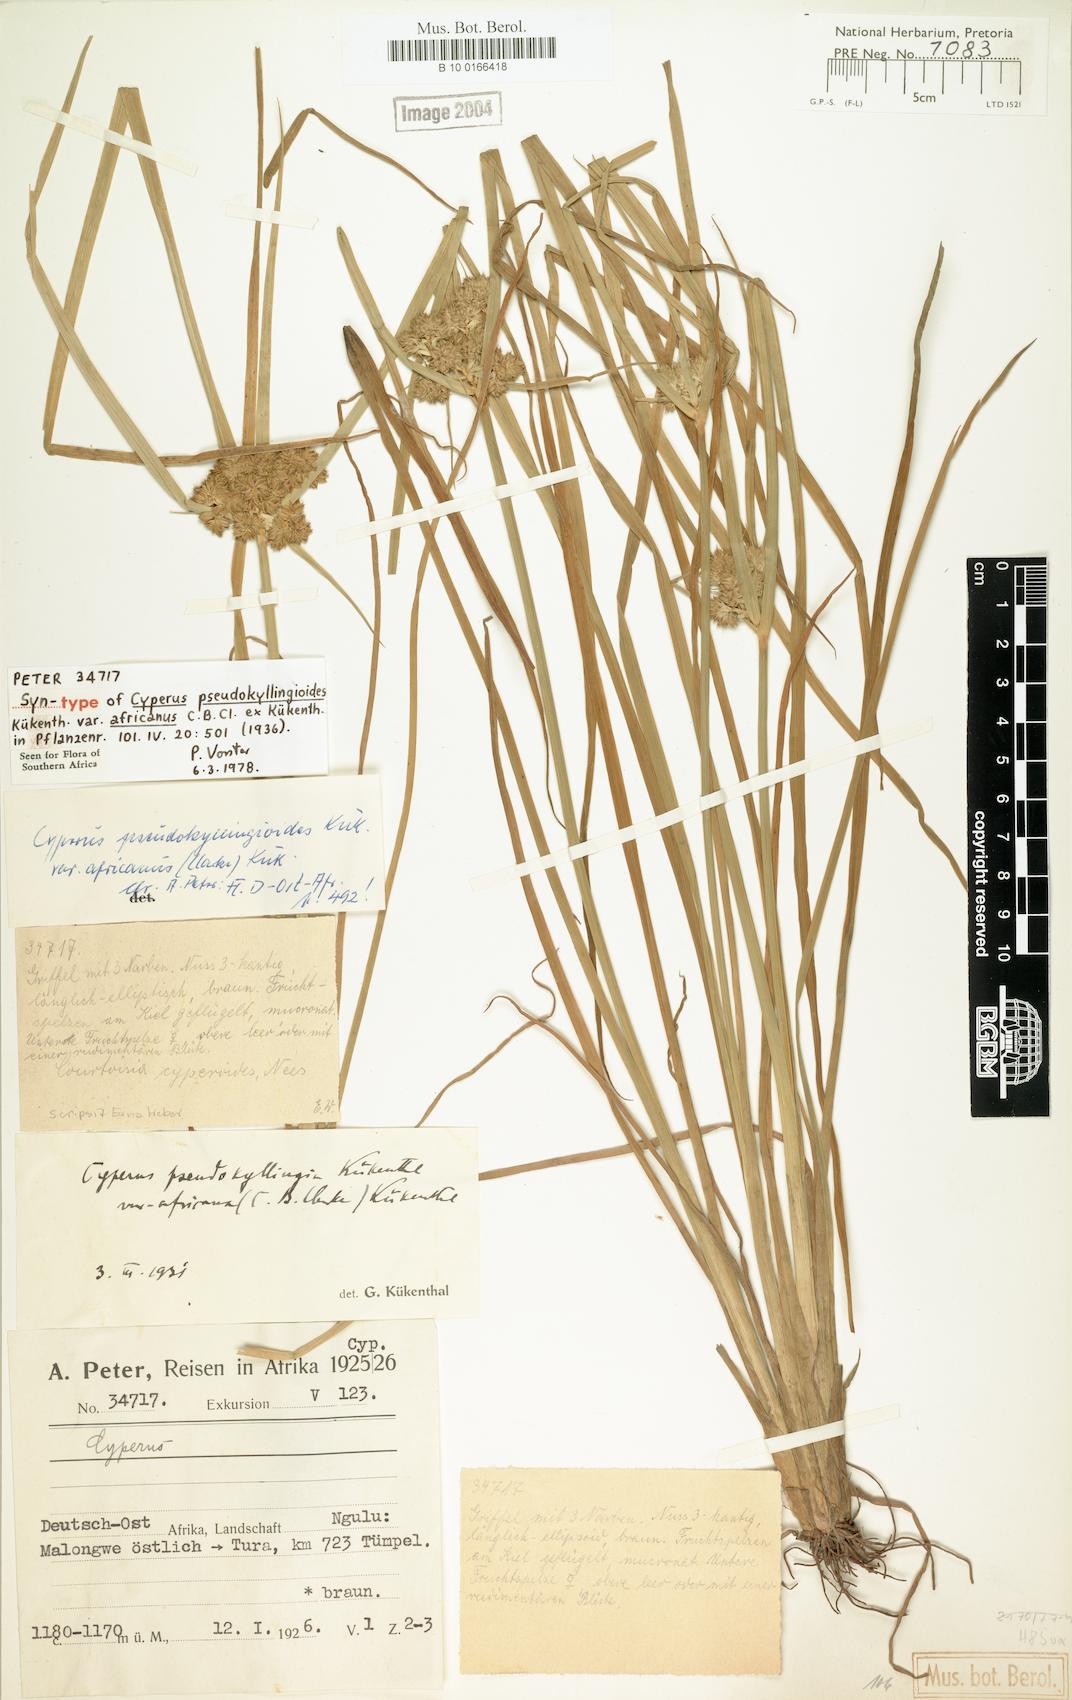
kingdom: Plantae
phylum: Tracheophyta
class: Liliopsida
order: Poales
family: Cyperaceae
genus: Cyperus
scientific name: Cyperus pseudokyllingioides
